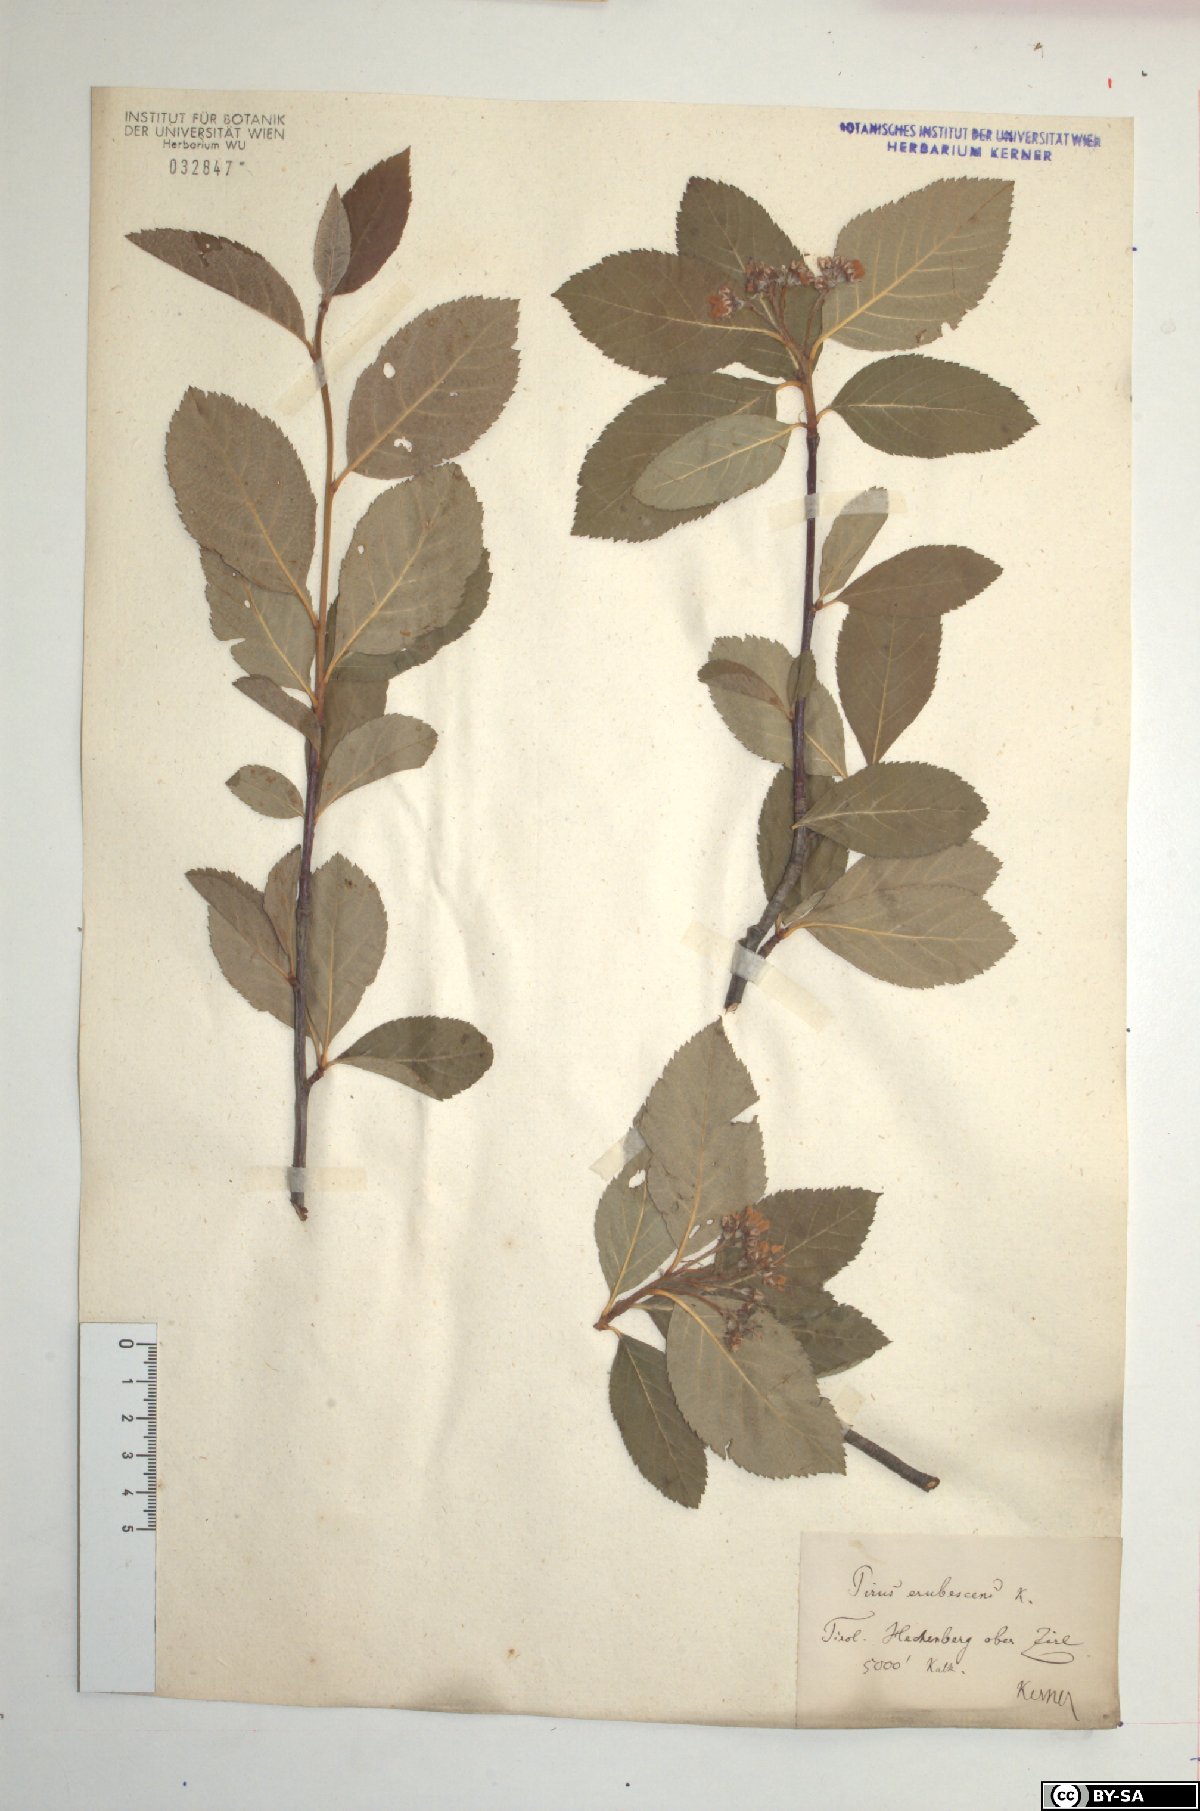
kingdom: Plantae
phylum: Tracheophyta
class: Magnoliopsida
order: Rosales
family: Rosaceae
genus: Majovskya
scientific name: Majovskya sudetica
